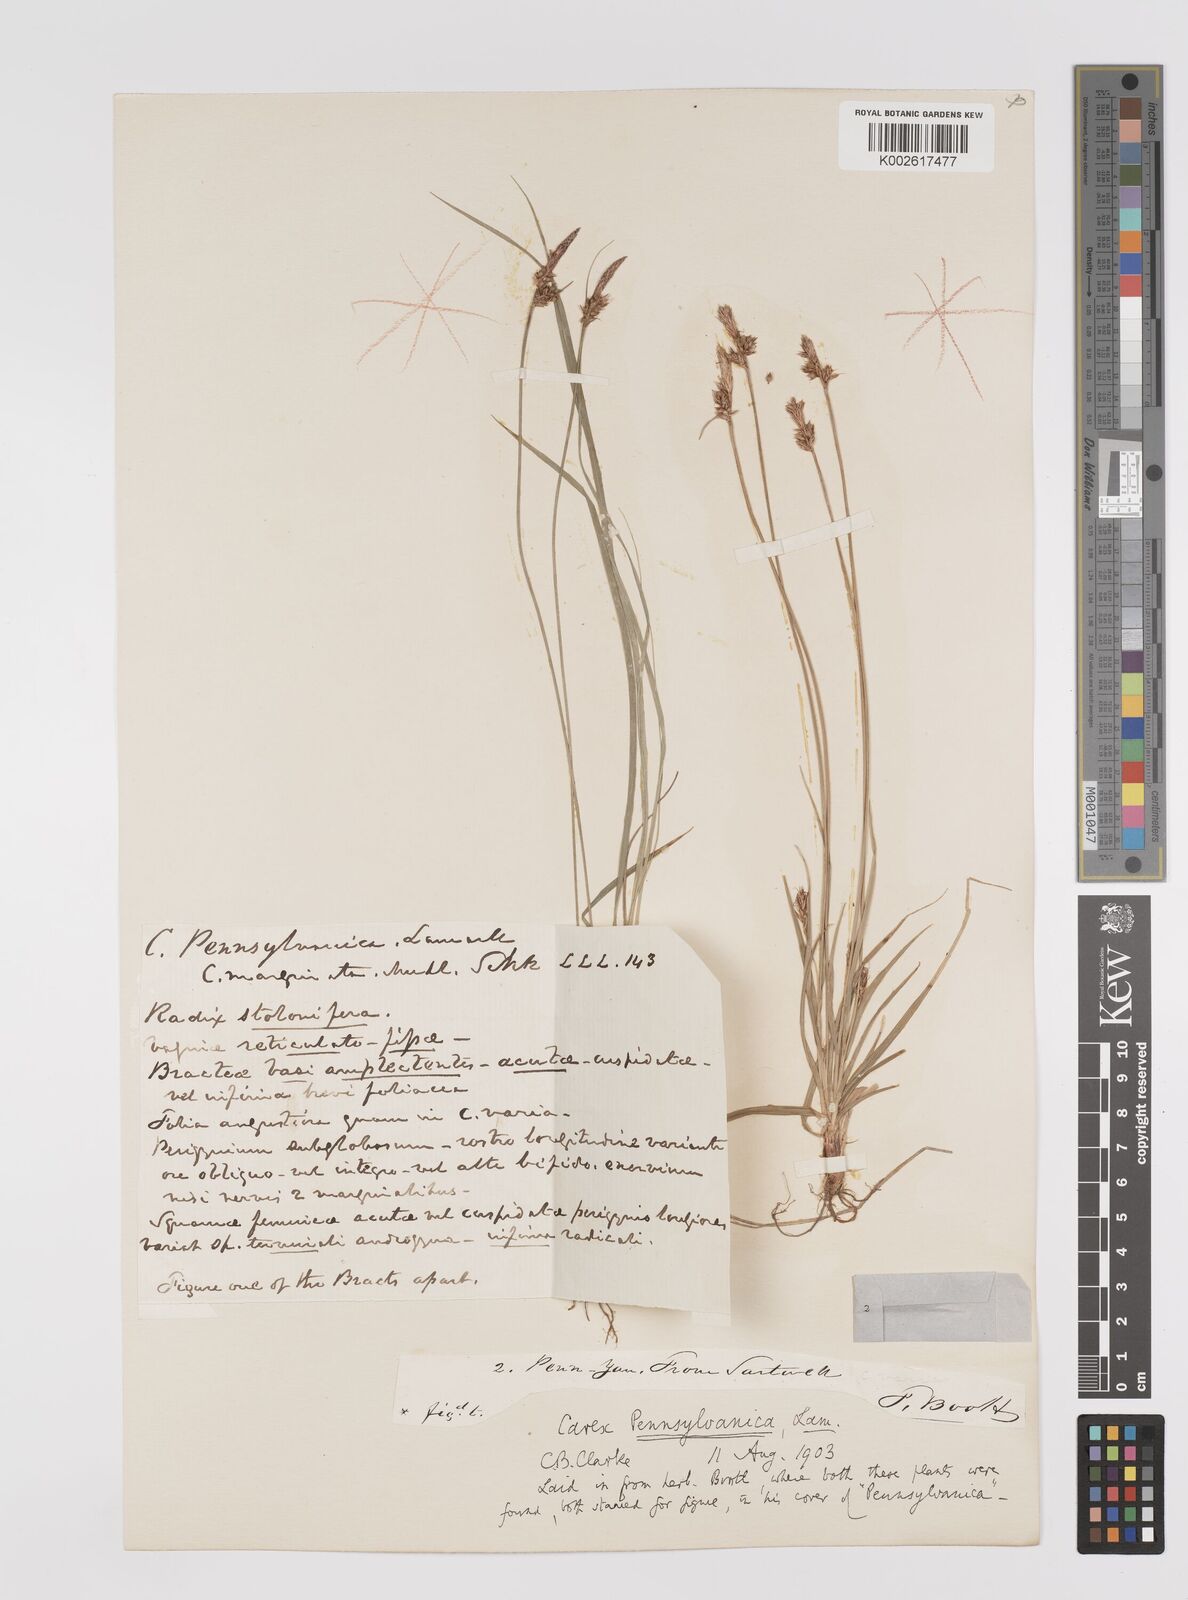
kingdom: Plantae
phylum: Tracheophyta
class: Liliopsida
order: Poales
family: Cyperaceae
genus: Carex
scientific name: Carex pensylvanica
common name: Common oak sedge
